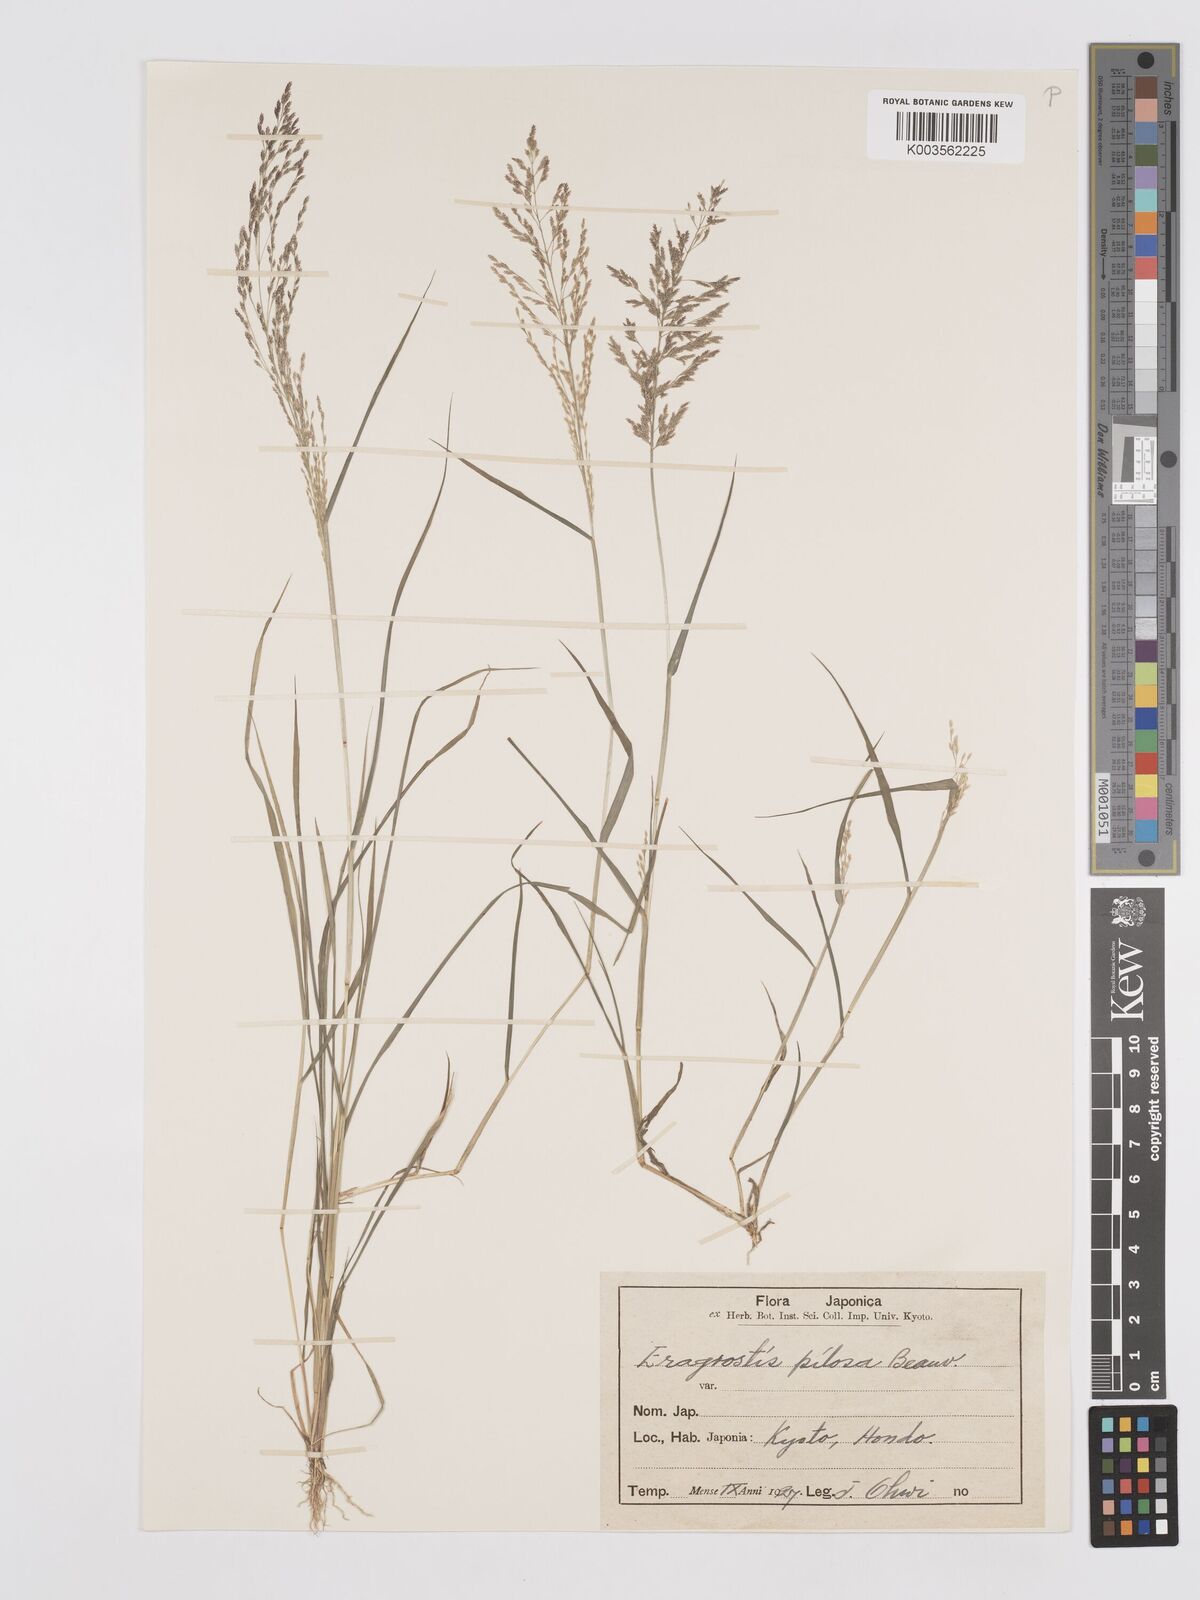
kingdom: Plantae
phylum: Tracheophyta
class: Liliopsida
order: Poales
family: Poaceae
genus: Eragrostis
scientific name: Eragrostis pilosa
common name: Indian lovegrass
